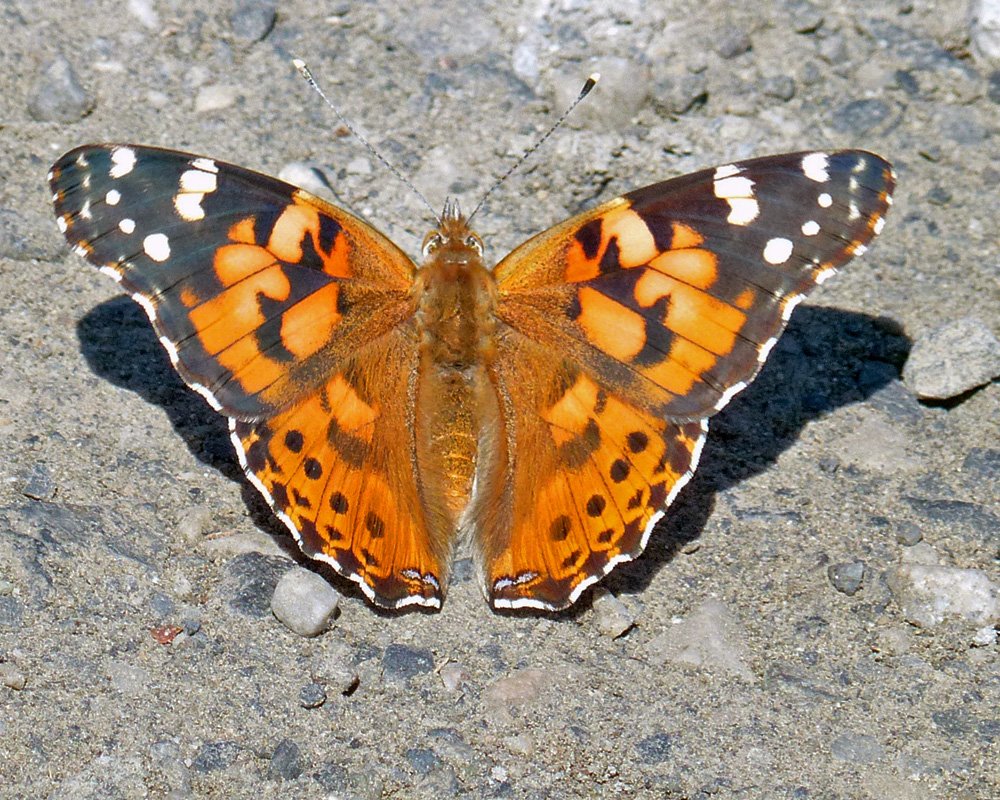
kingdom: Animalia
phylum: Arthropoda
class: Insecta
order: Lepidoptera
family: Nymphalidae
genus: Vanessa
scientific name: Vanessa cardui
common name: Painted Lady
